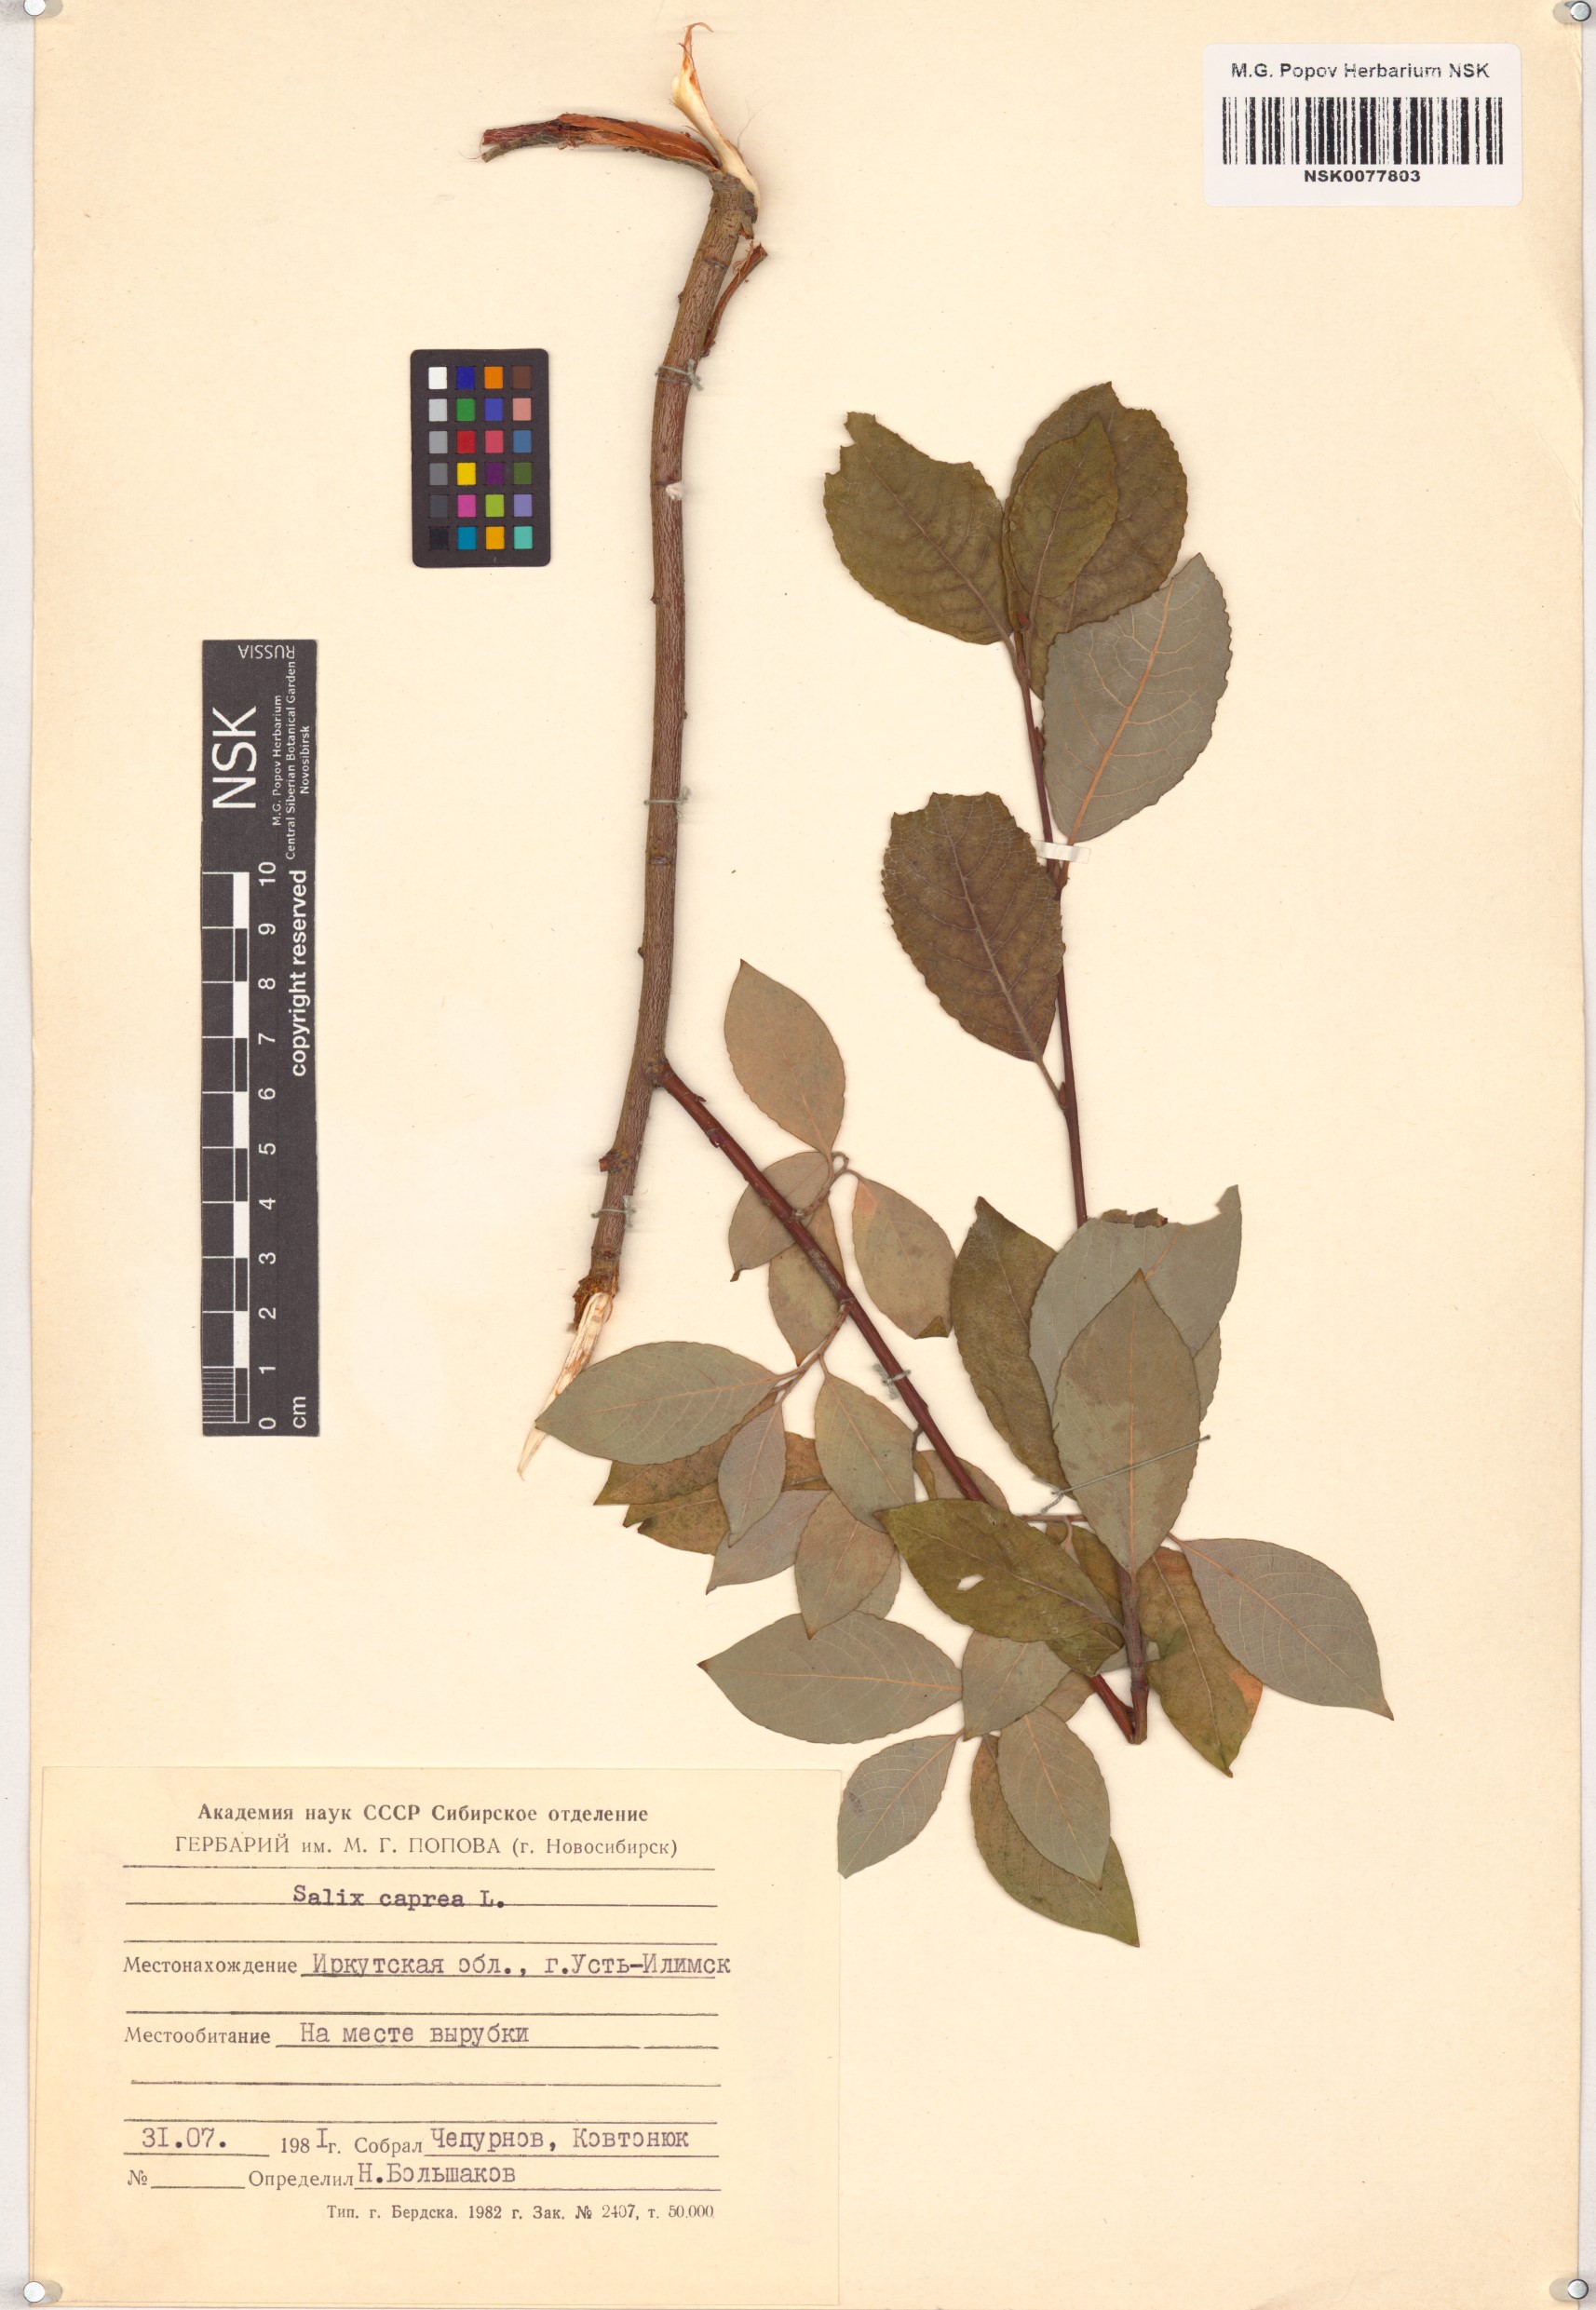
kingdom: Plantae
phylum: Tracheophyta
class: Magnoliopsida
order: Malpighiales
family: Salicaceae
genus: Salix
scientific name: Salix caprea
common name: Goat willow
